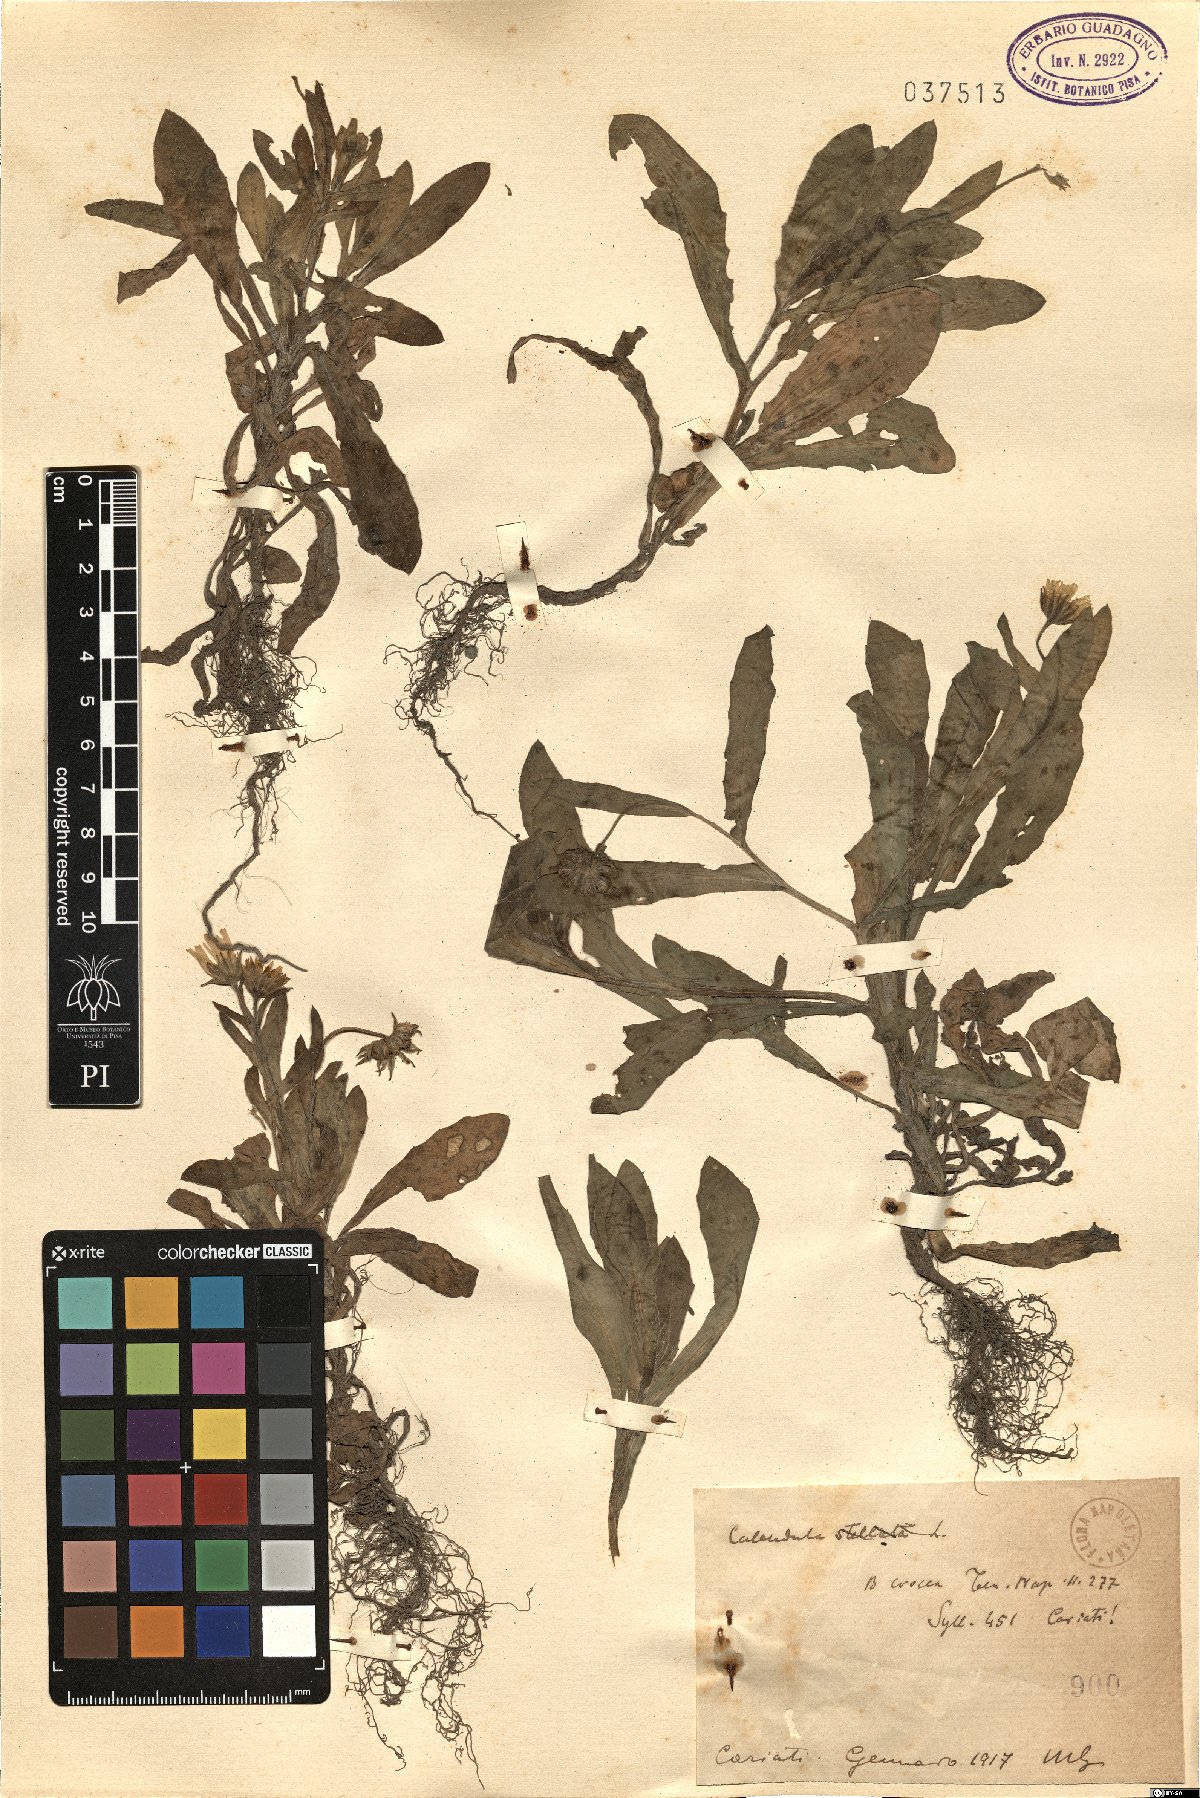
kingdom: Plantae
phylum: Tracheophyta
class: Magnoliopsida
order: Asterales
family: Asteraceae
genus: Calendula
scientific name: Calendula stellata
